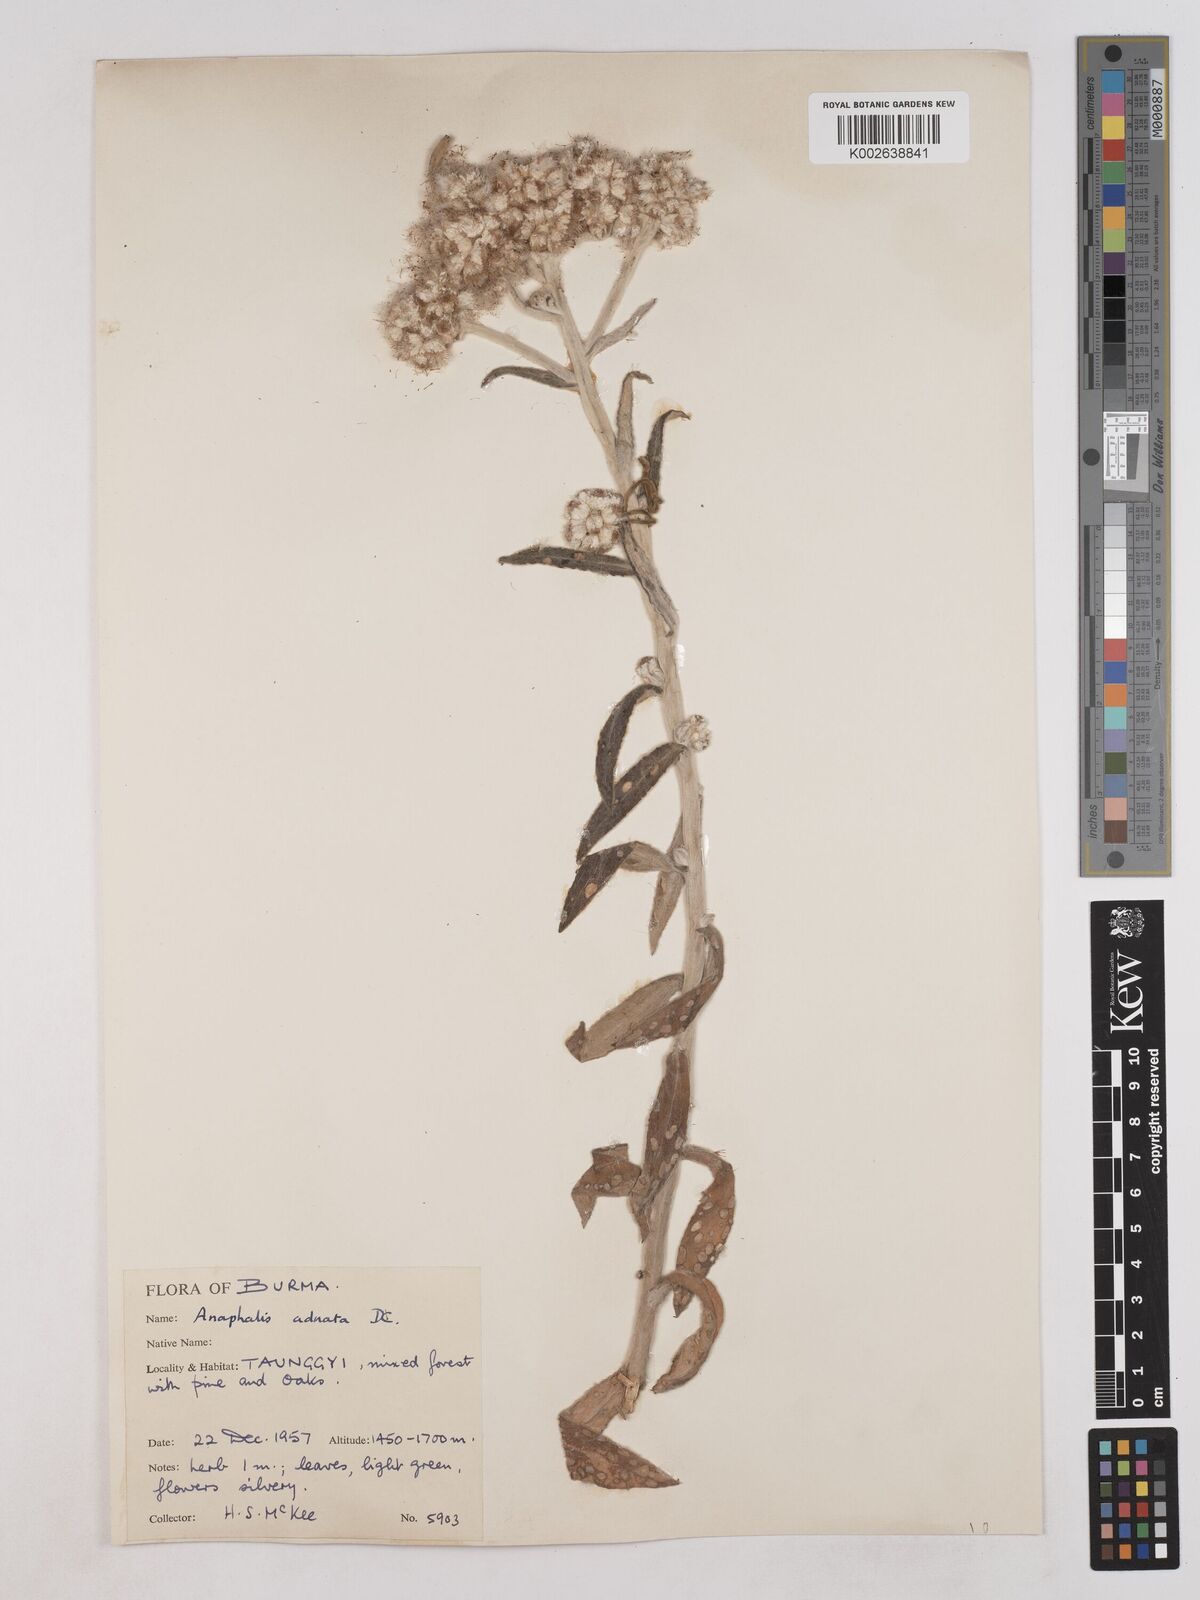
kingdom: Plantae
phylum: Tracheophyta
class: Magnoliopsida
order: Asterales
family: Asteraceae
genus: Pseudognaphalium
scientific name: Pseudognaphalium adnatum
